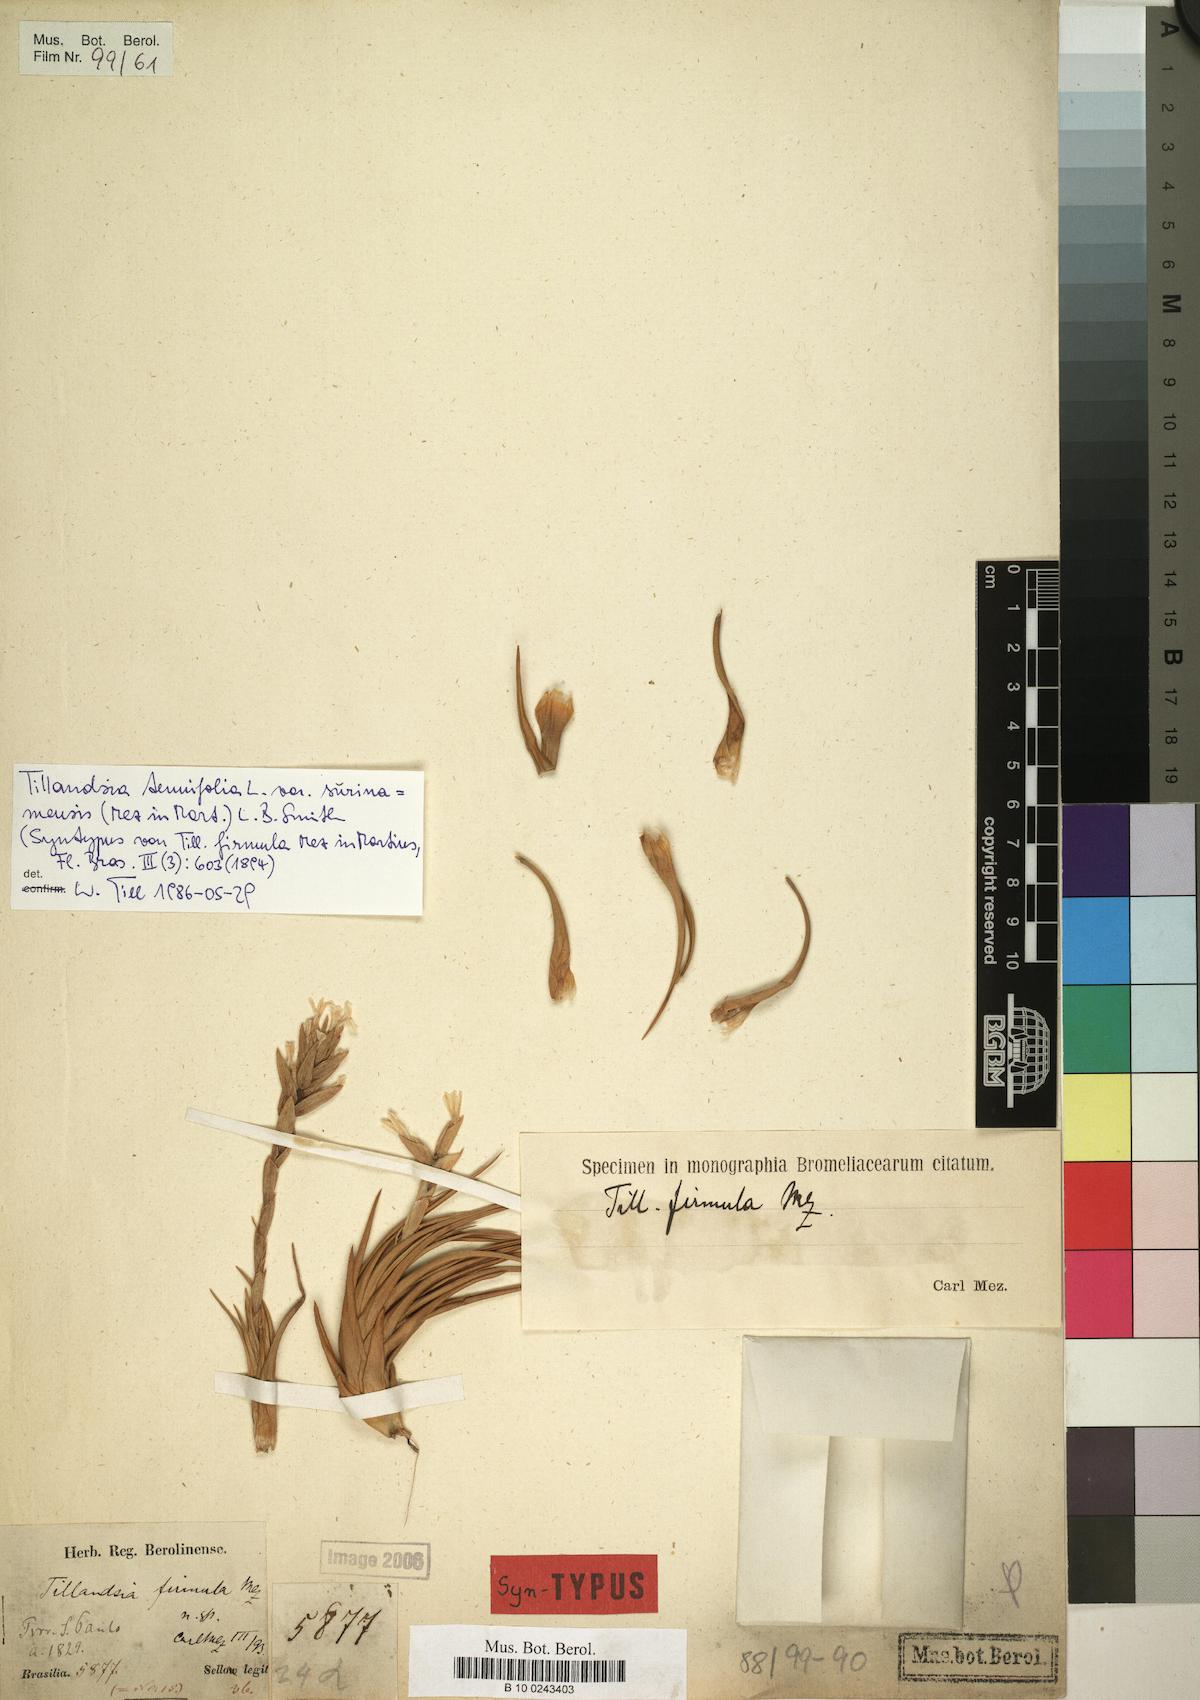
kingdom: Plantae
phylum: Tracheophyta
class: Liliopsida
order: Poales
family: Bromeliaceae
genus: Tillandsia
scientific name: Tillandsia tenuifolia
